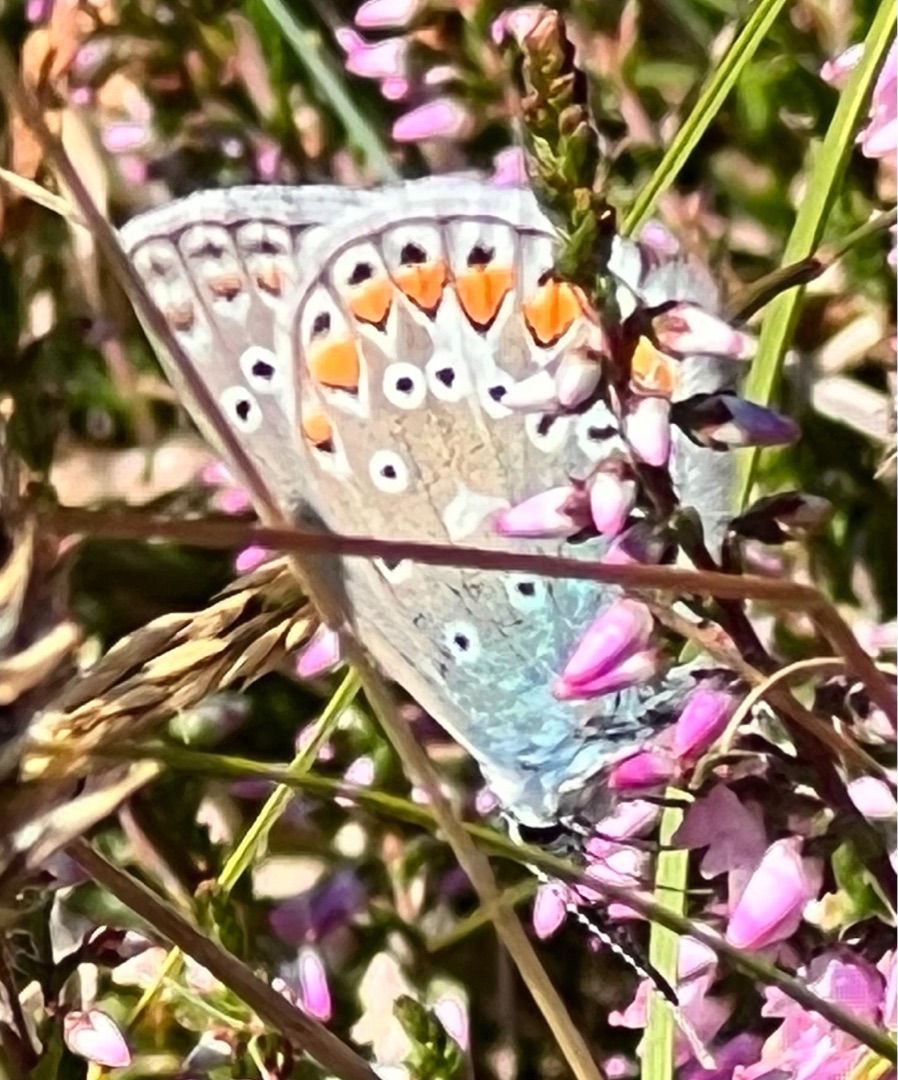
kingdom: Animalia
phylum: Arthropoda
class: Insecta
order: Lepidoptera
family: Lycaenidae
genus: Polyommatus
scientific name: Polyommatus icarus
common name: Almindelig blåfugl
